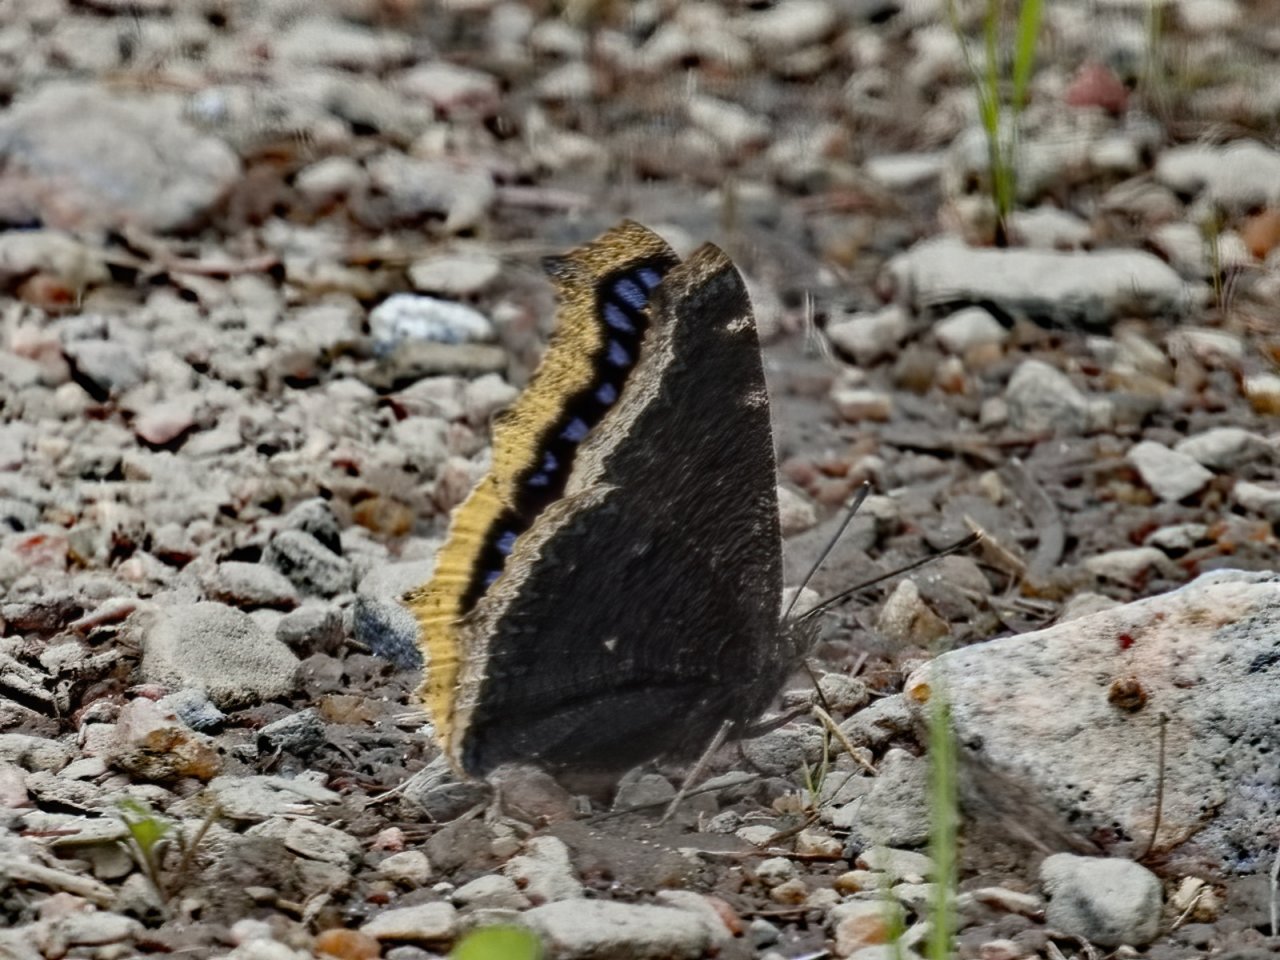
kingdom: Animalia
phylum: Arthropoda
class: Insecta
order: Lepidoptera
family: Nymphalidae
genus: Nymphalis
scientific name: Nymphalis antiopa
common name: Mourning Cloak
